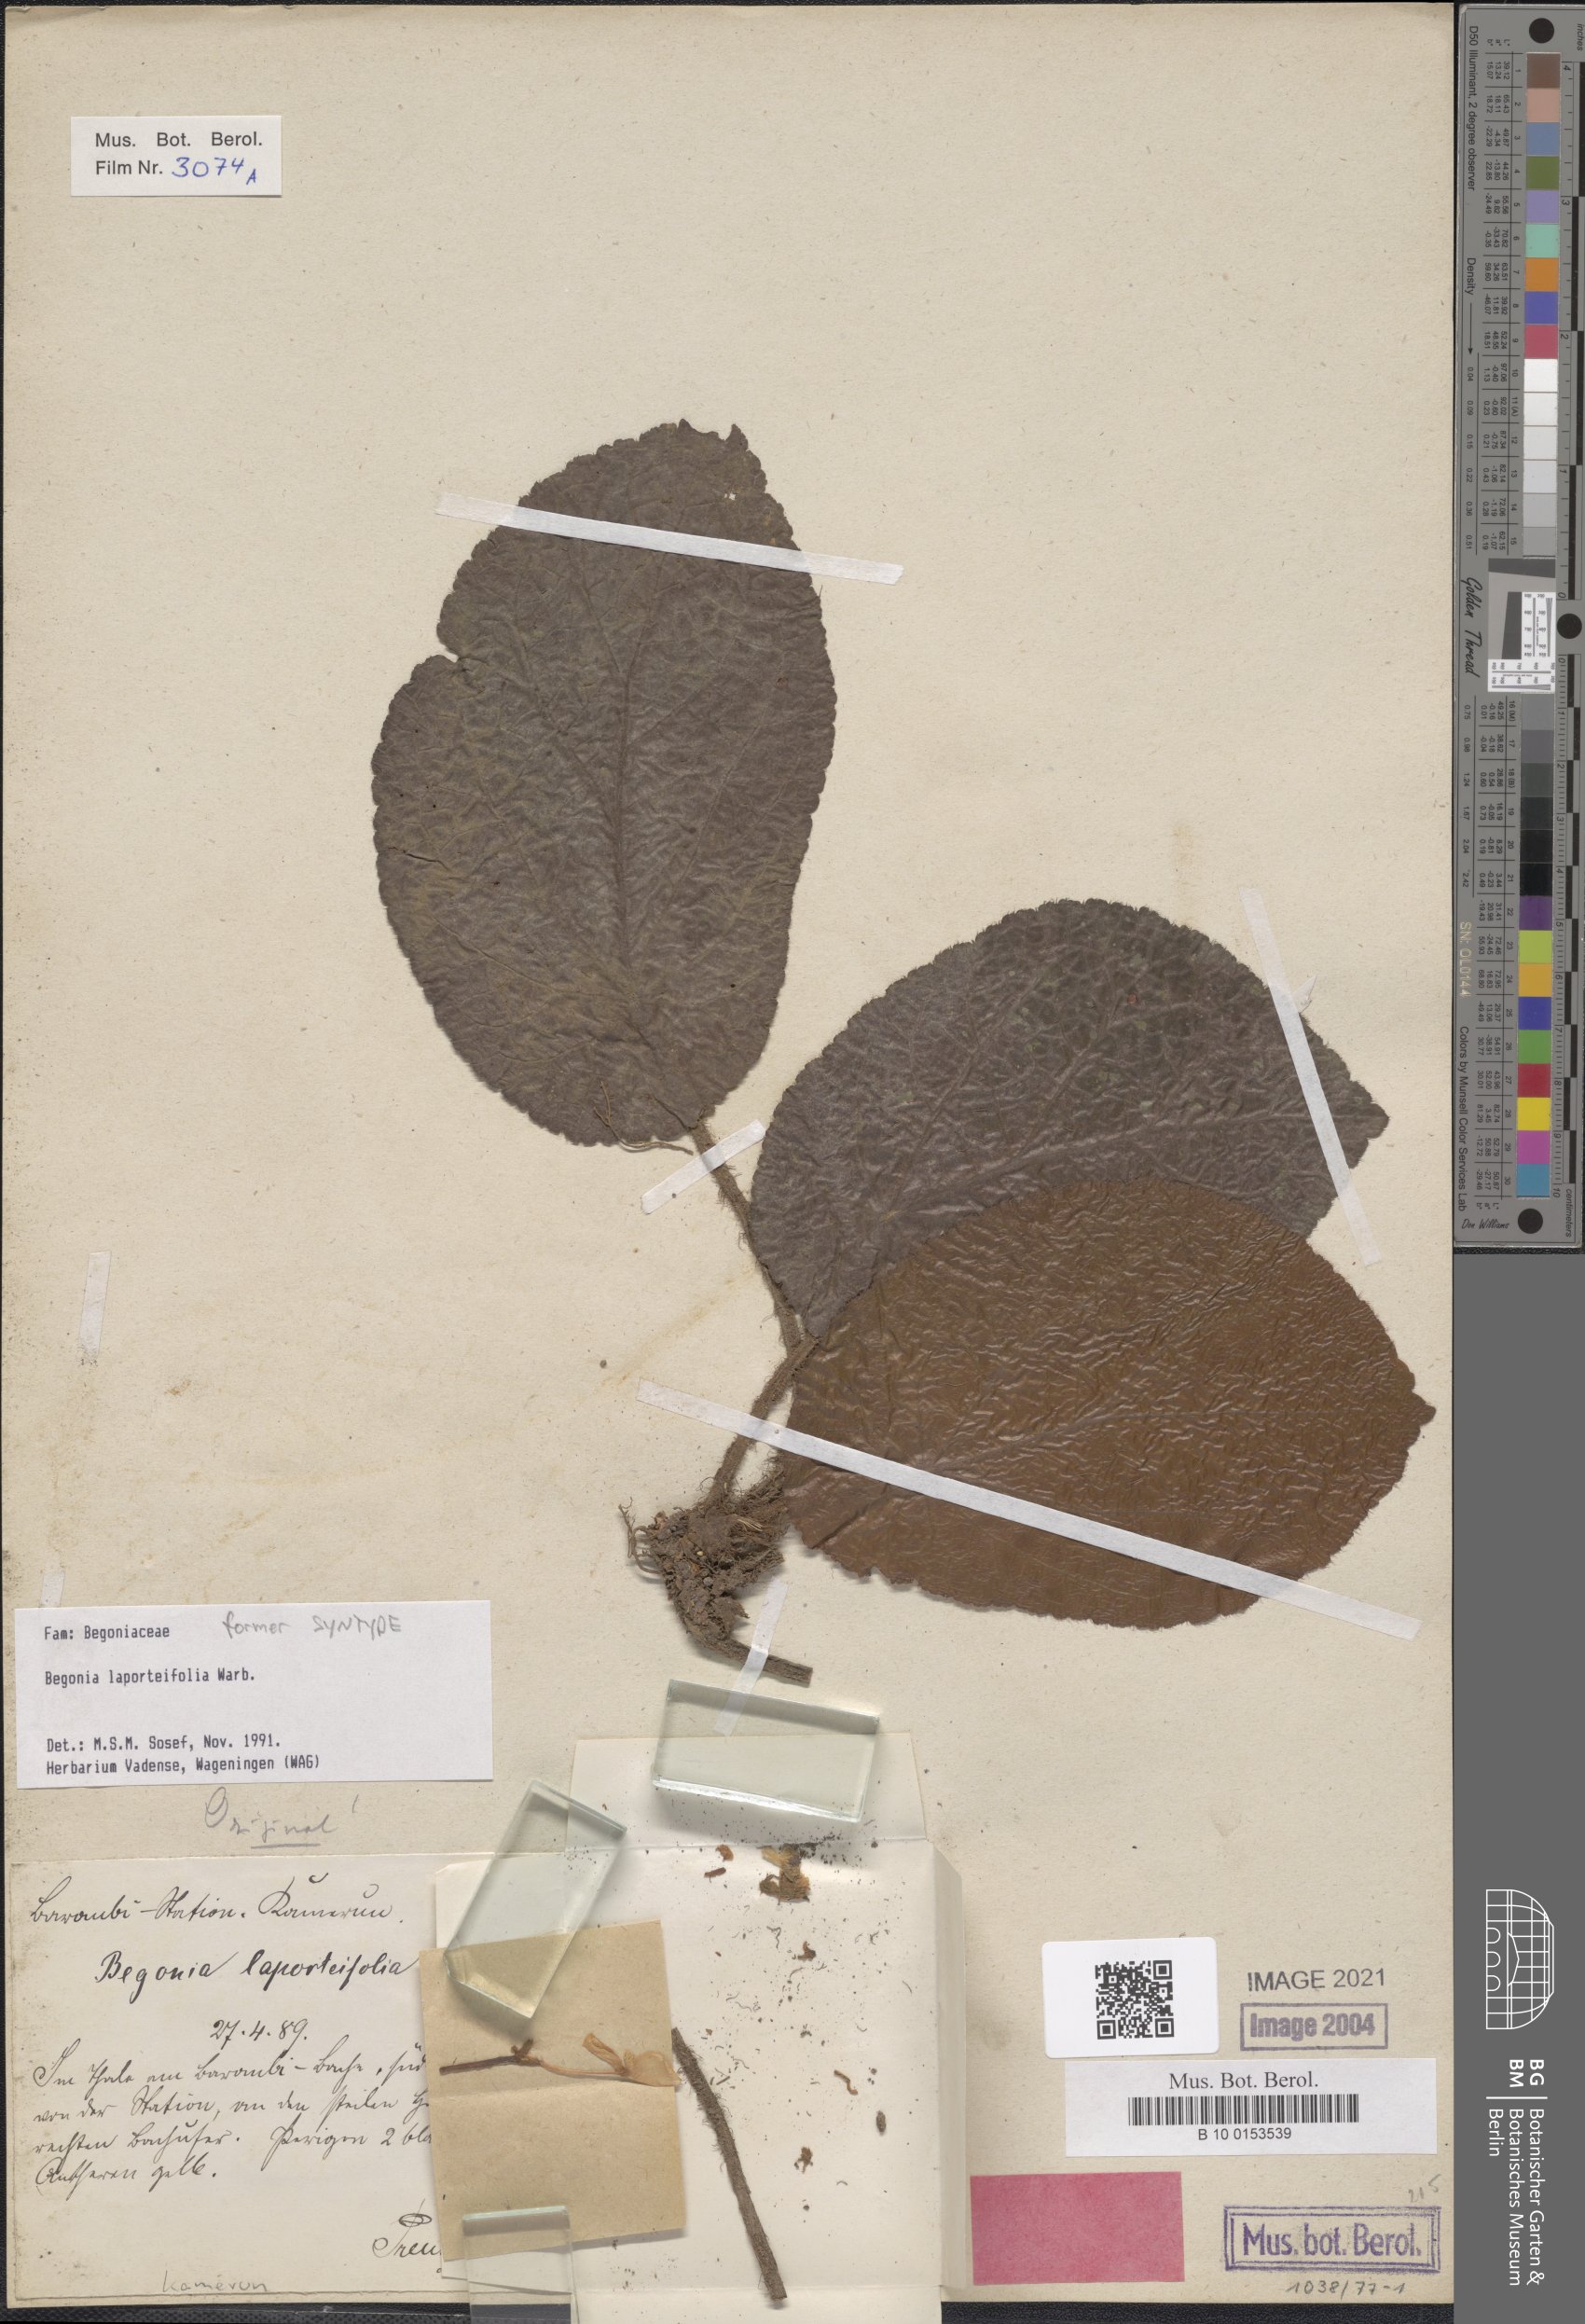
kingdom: Plantae
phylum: Tracheophyta
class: Magnoliopsida
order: Cucurbitales
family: Begoniaceae
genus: Begonia
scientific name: Begonia laporteifolia
